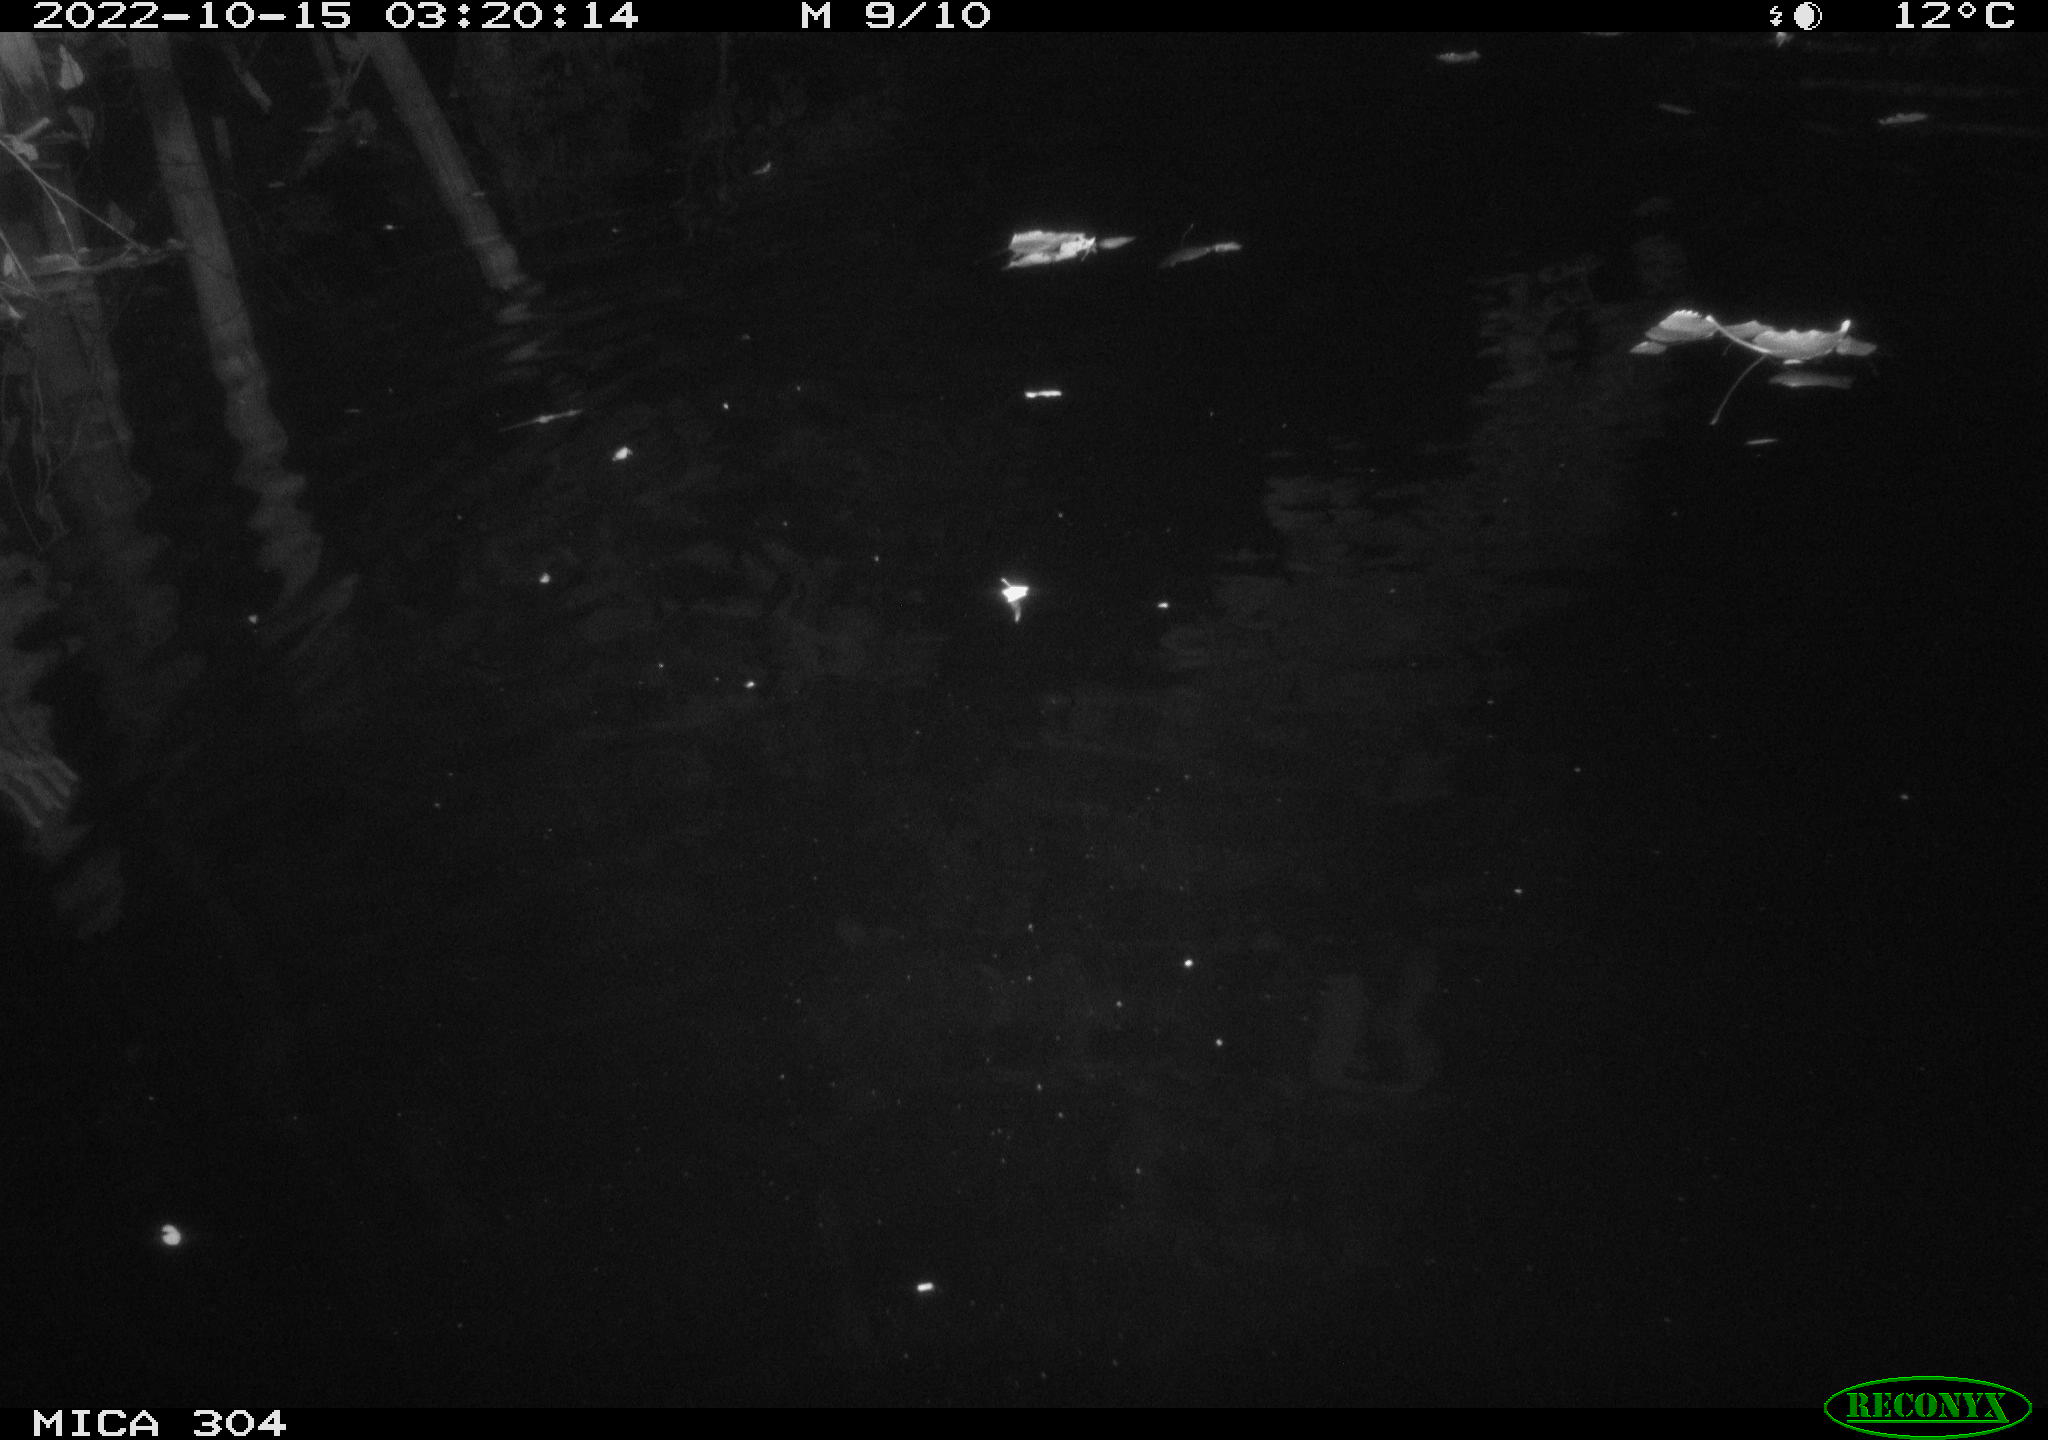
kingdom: Animalia
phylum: Chordata
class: Mammalia
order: Rodentia
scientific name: Rodentia
